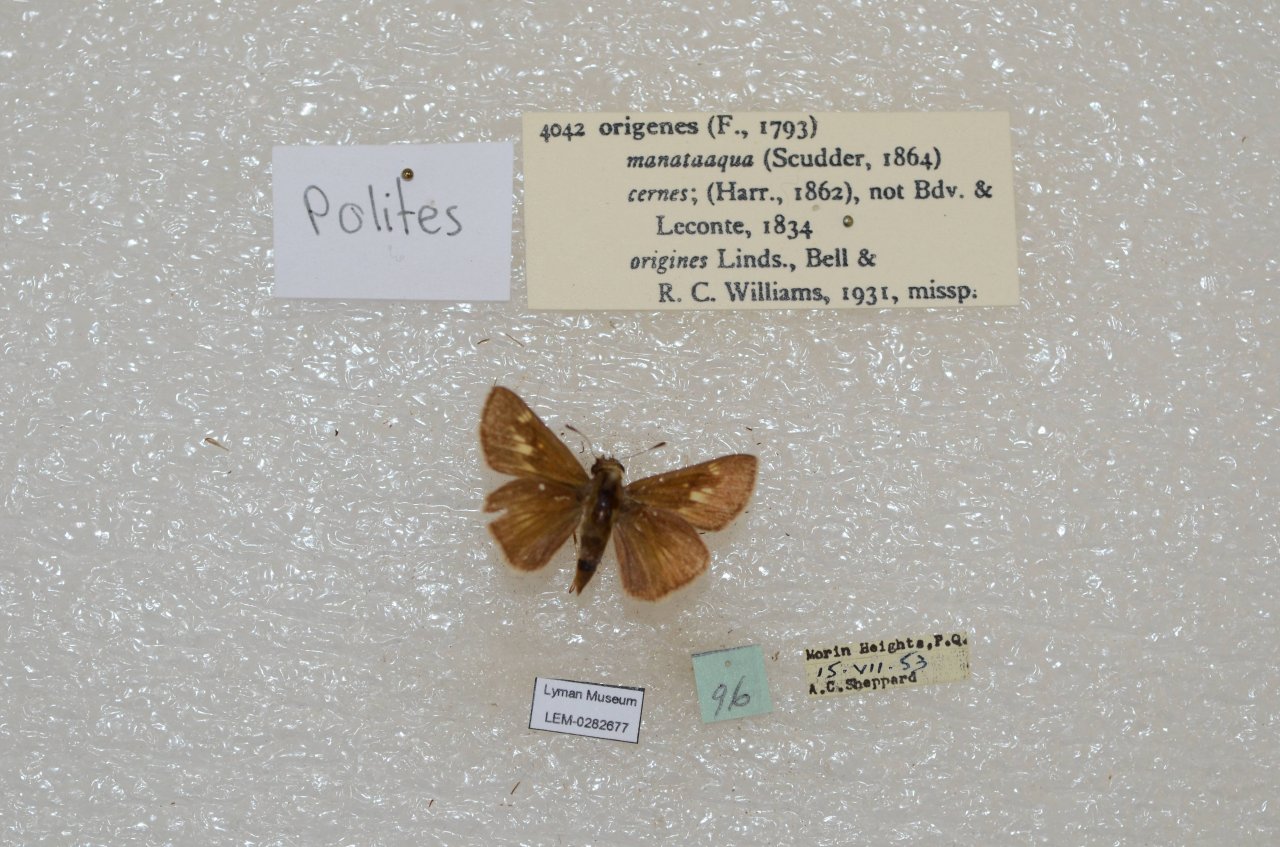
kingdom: Animalia
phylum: Arthropoda
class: Insecta
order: Lepidoptera
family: Hesperiidae
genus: Polites
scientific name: Polites
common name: Crossline Skipper
